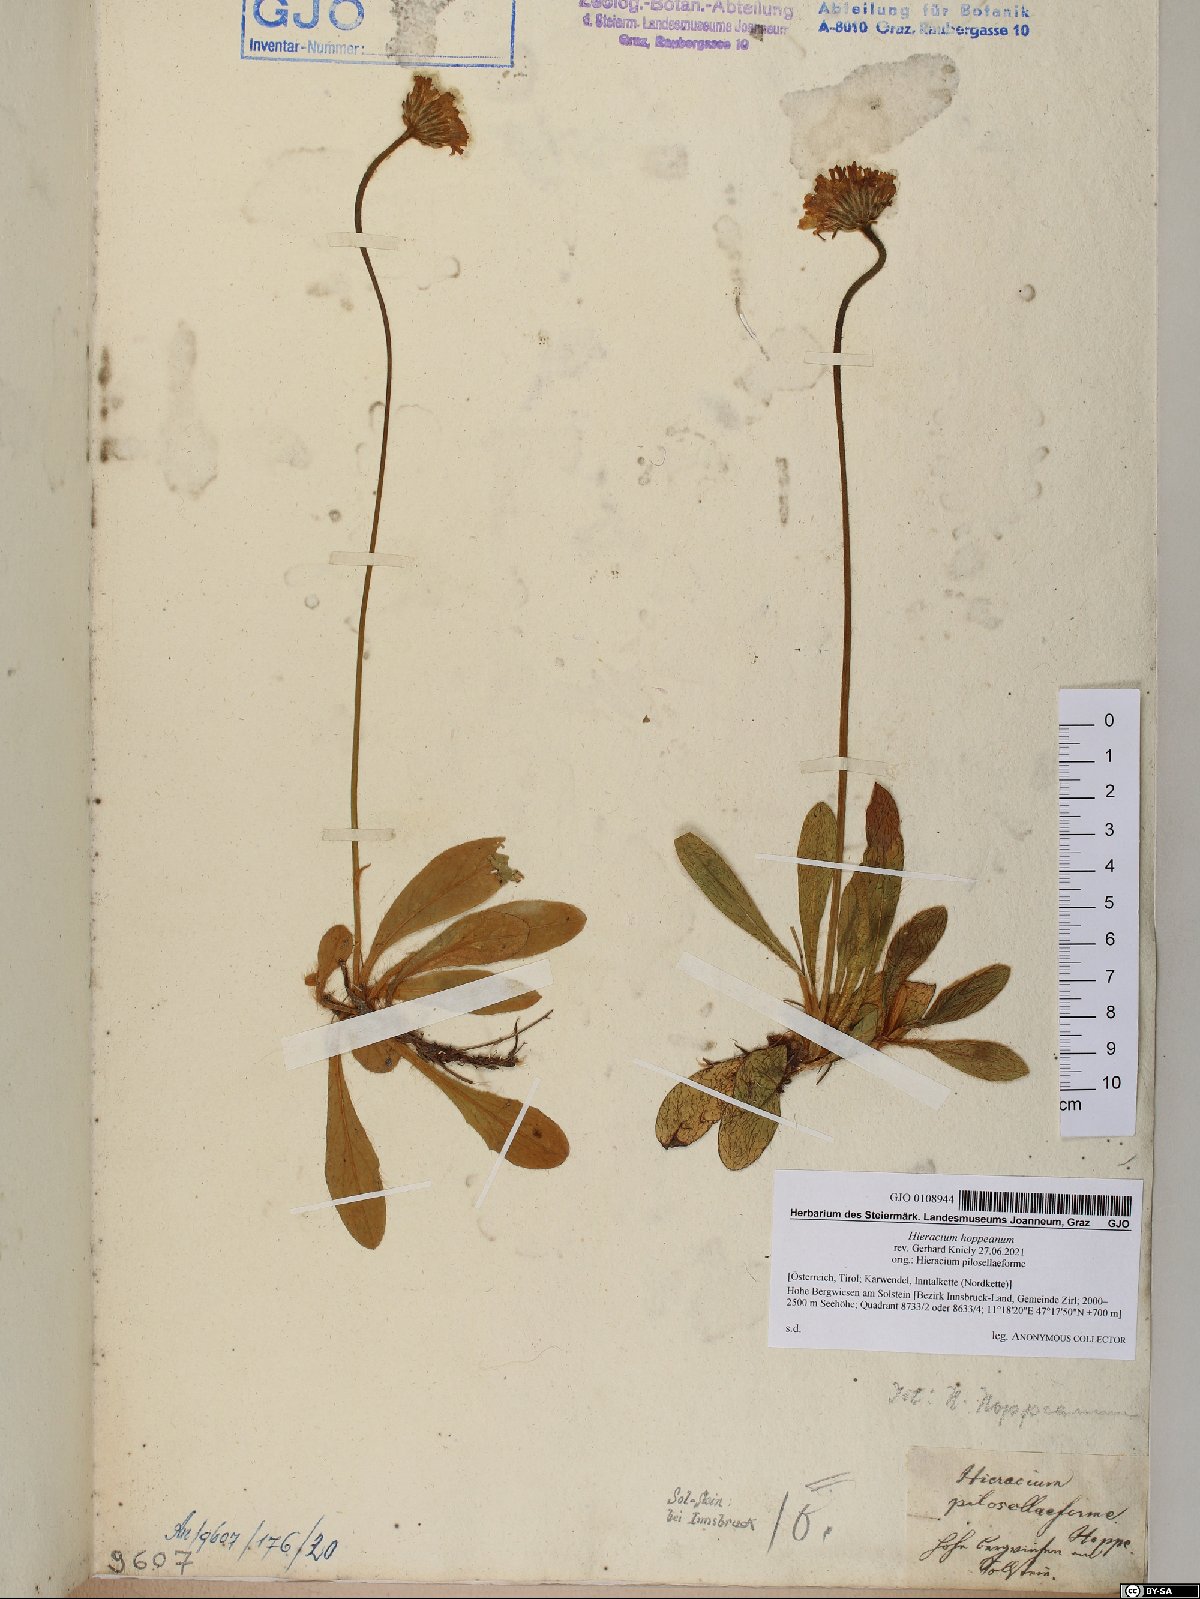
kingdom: Plantae
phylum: Tracheophyta
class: Magnoliopsida
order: Asterales
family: Asteraceae
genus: Pilosella
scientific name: Pilosella hoppeana
